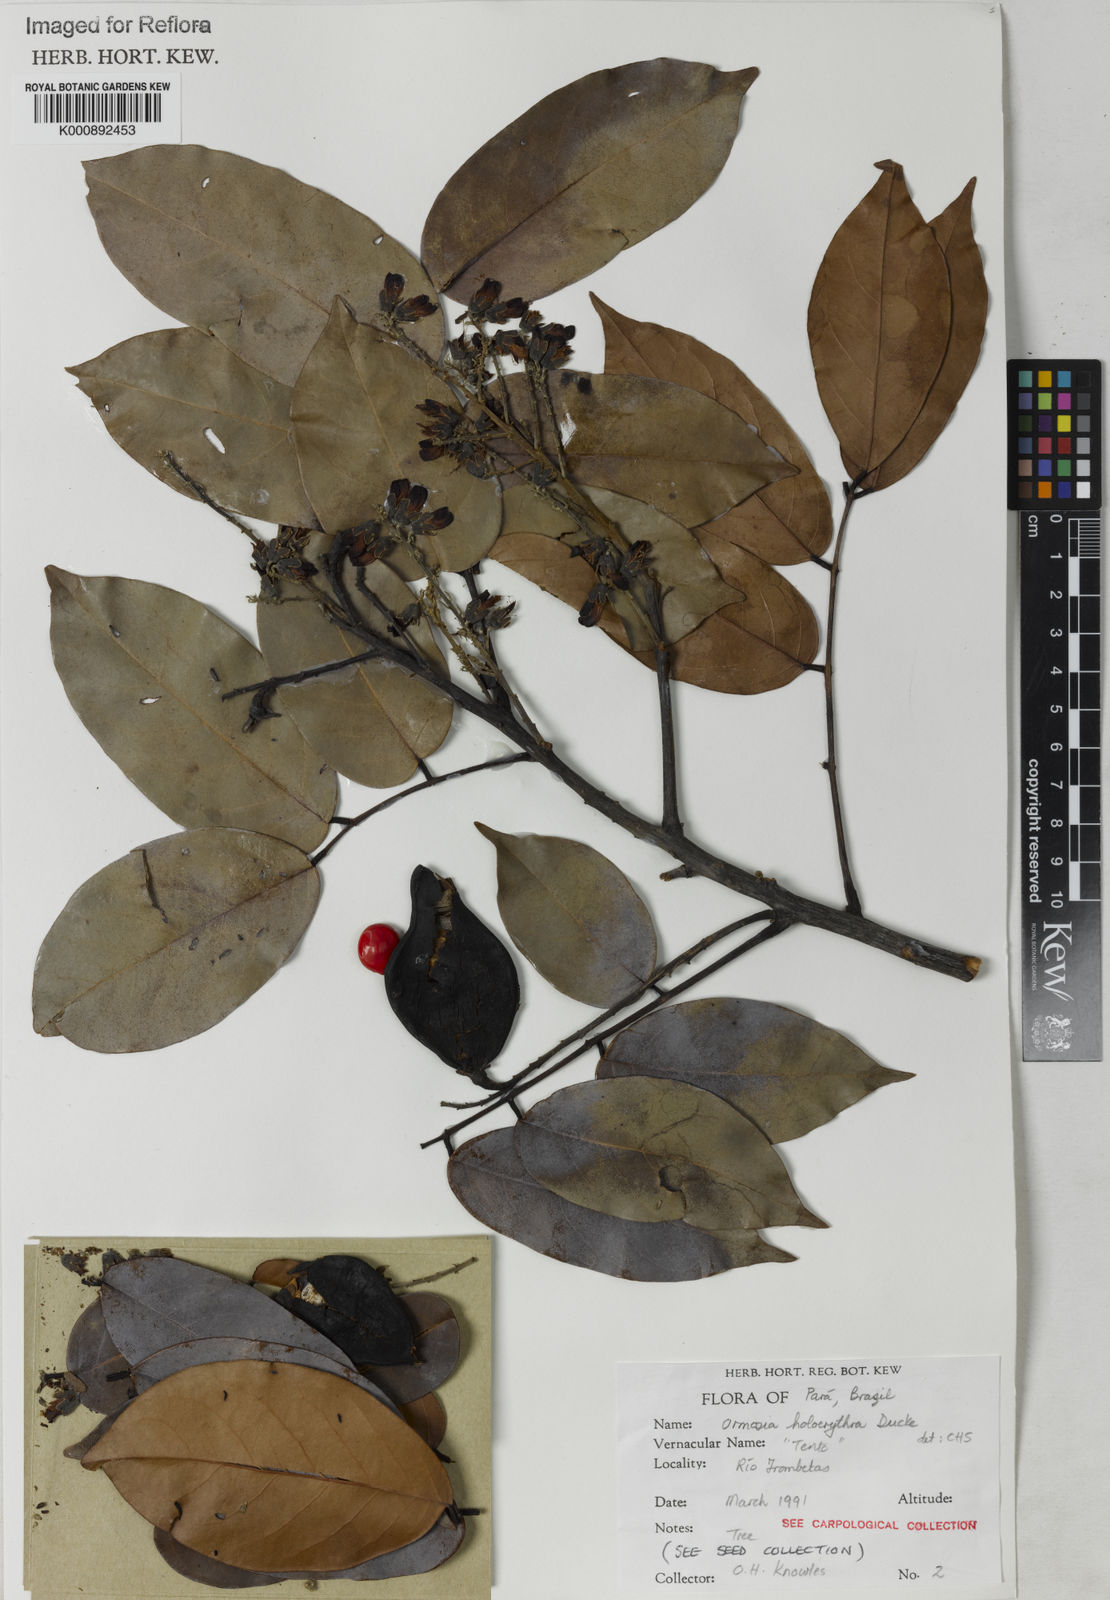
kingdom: Plantae
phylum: Tracheophyta
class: Magnoliopsida
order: Fabales
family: Fabaceae
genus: Ormosia
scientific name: Ormosia holerythra
